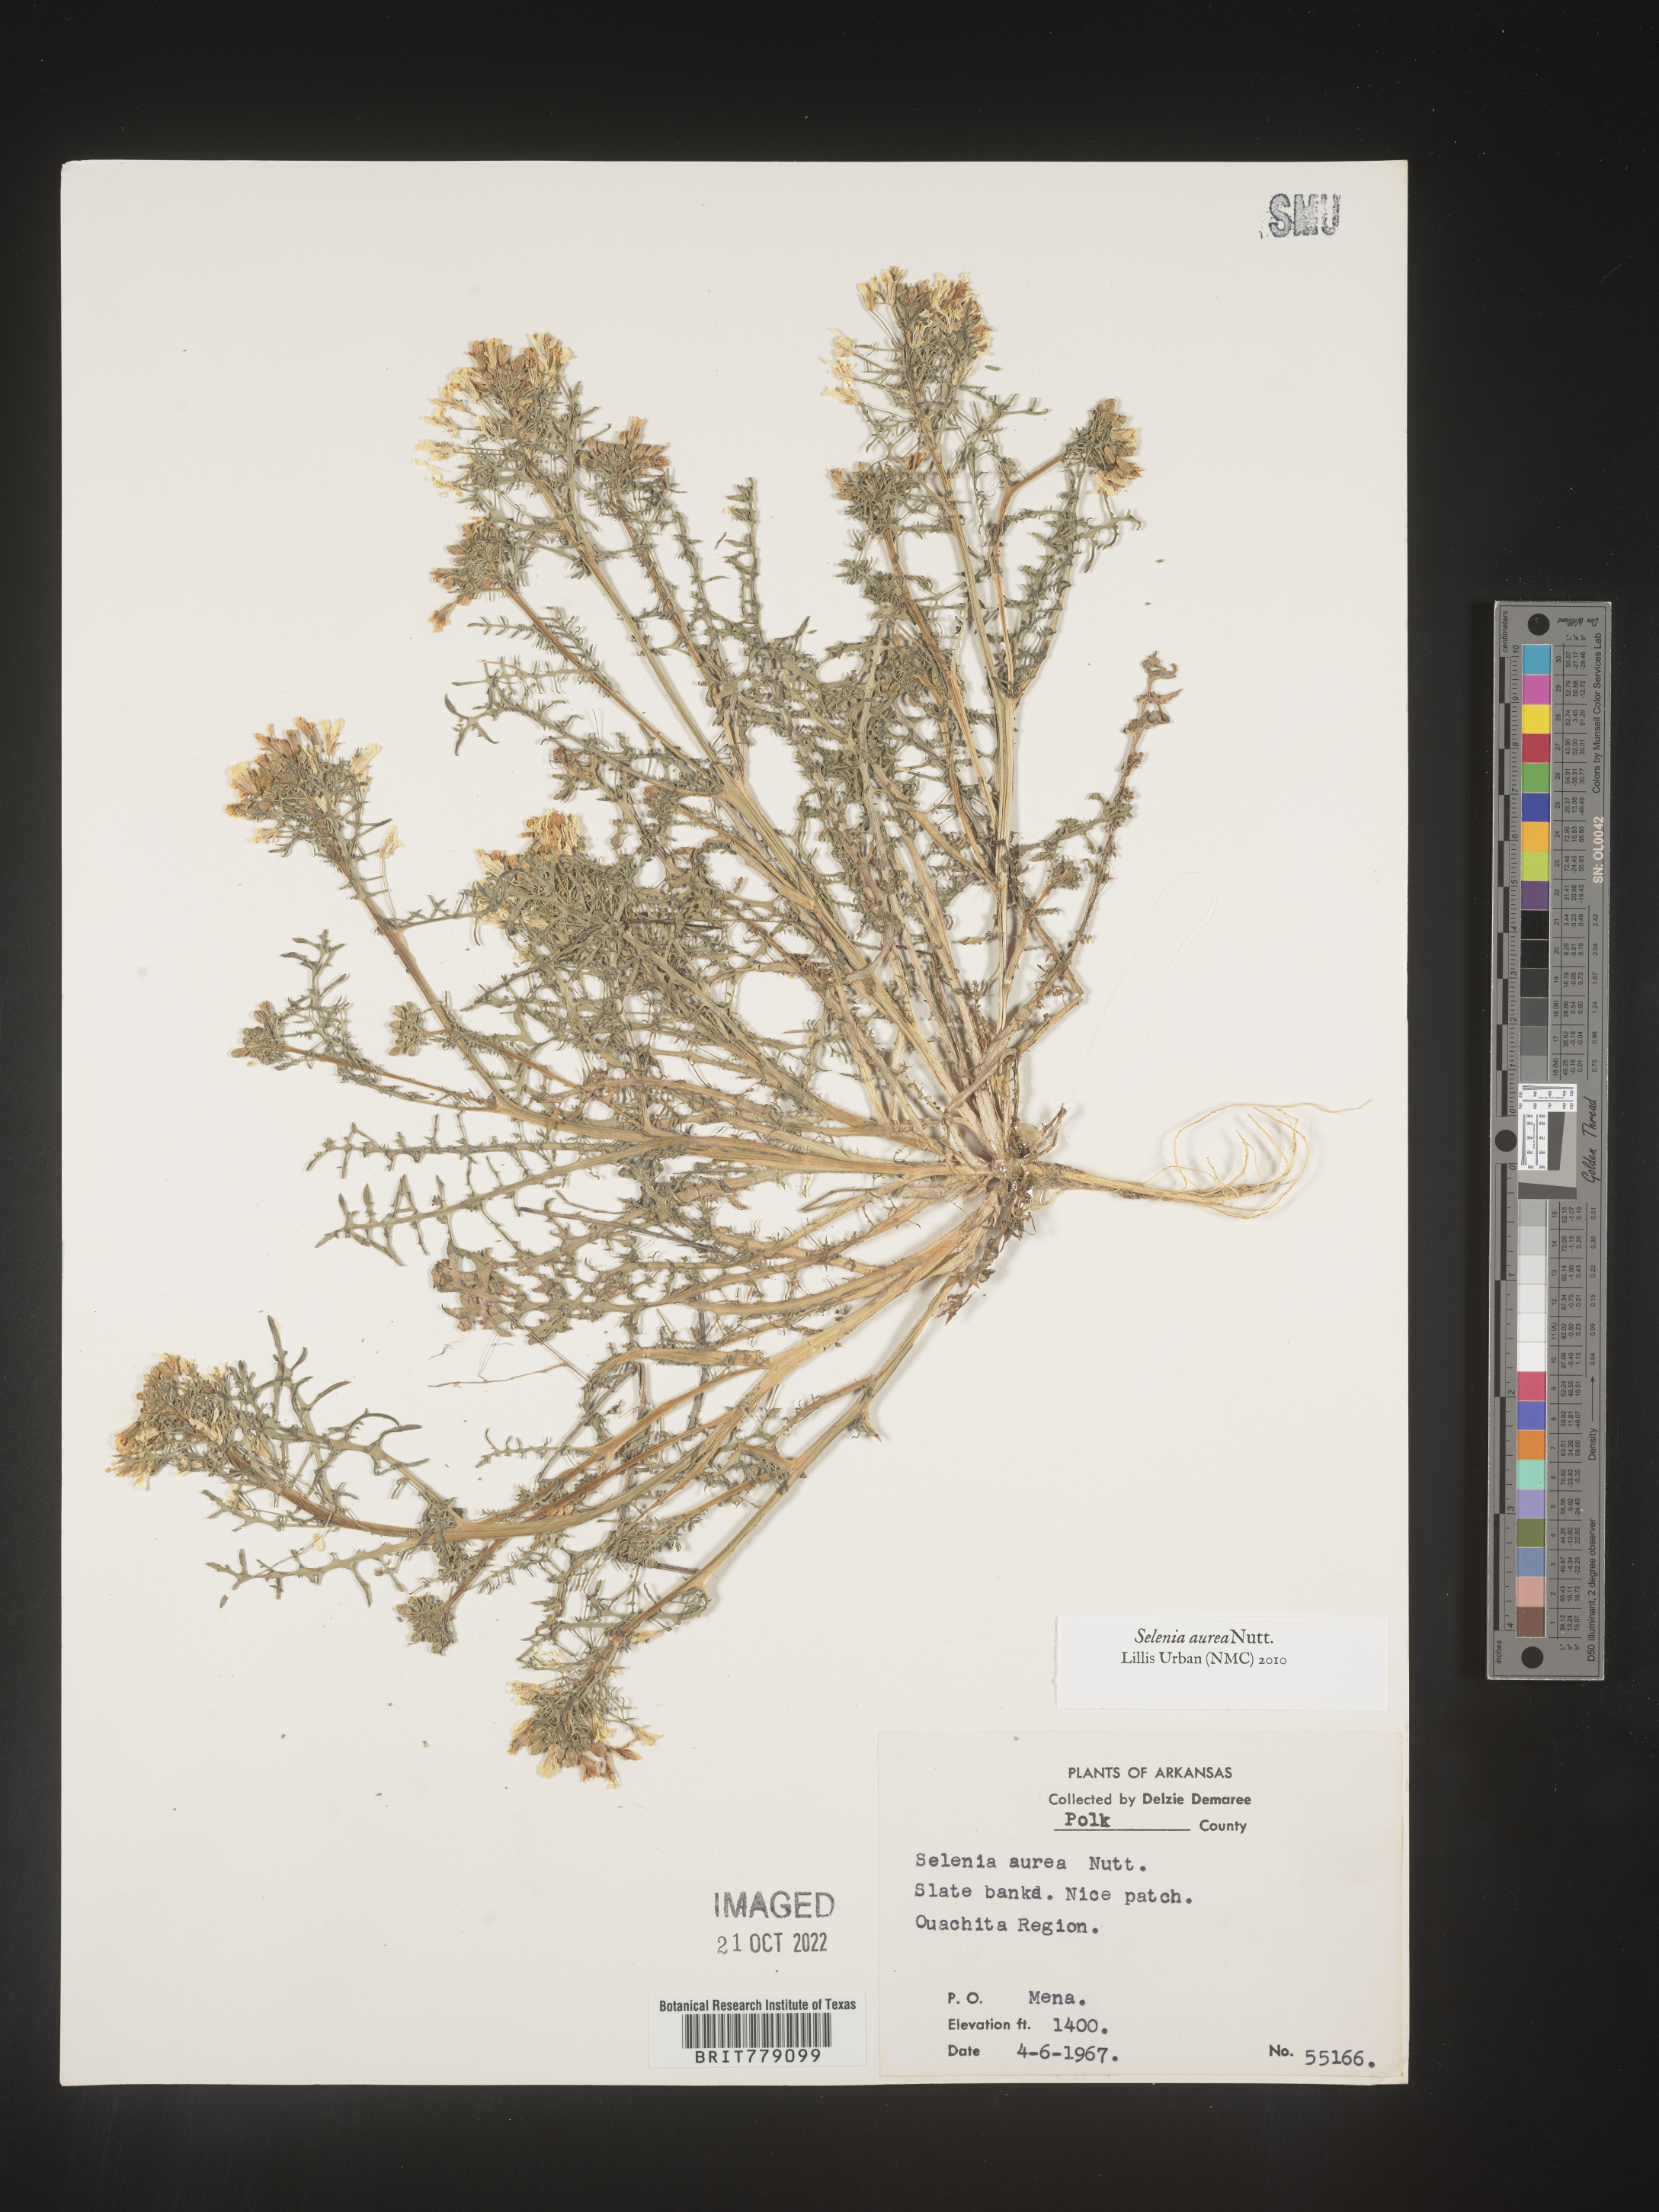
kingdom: Plantae
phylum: Tracheophyta
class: Magnoliopsida
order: Brassicales
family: Brassicaceae
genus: Selenia
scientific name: Selenia
